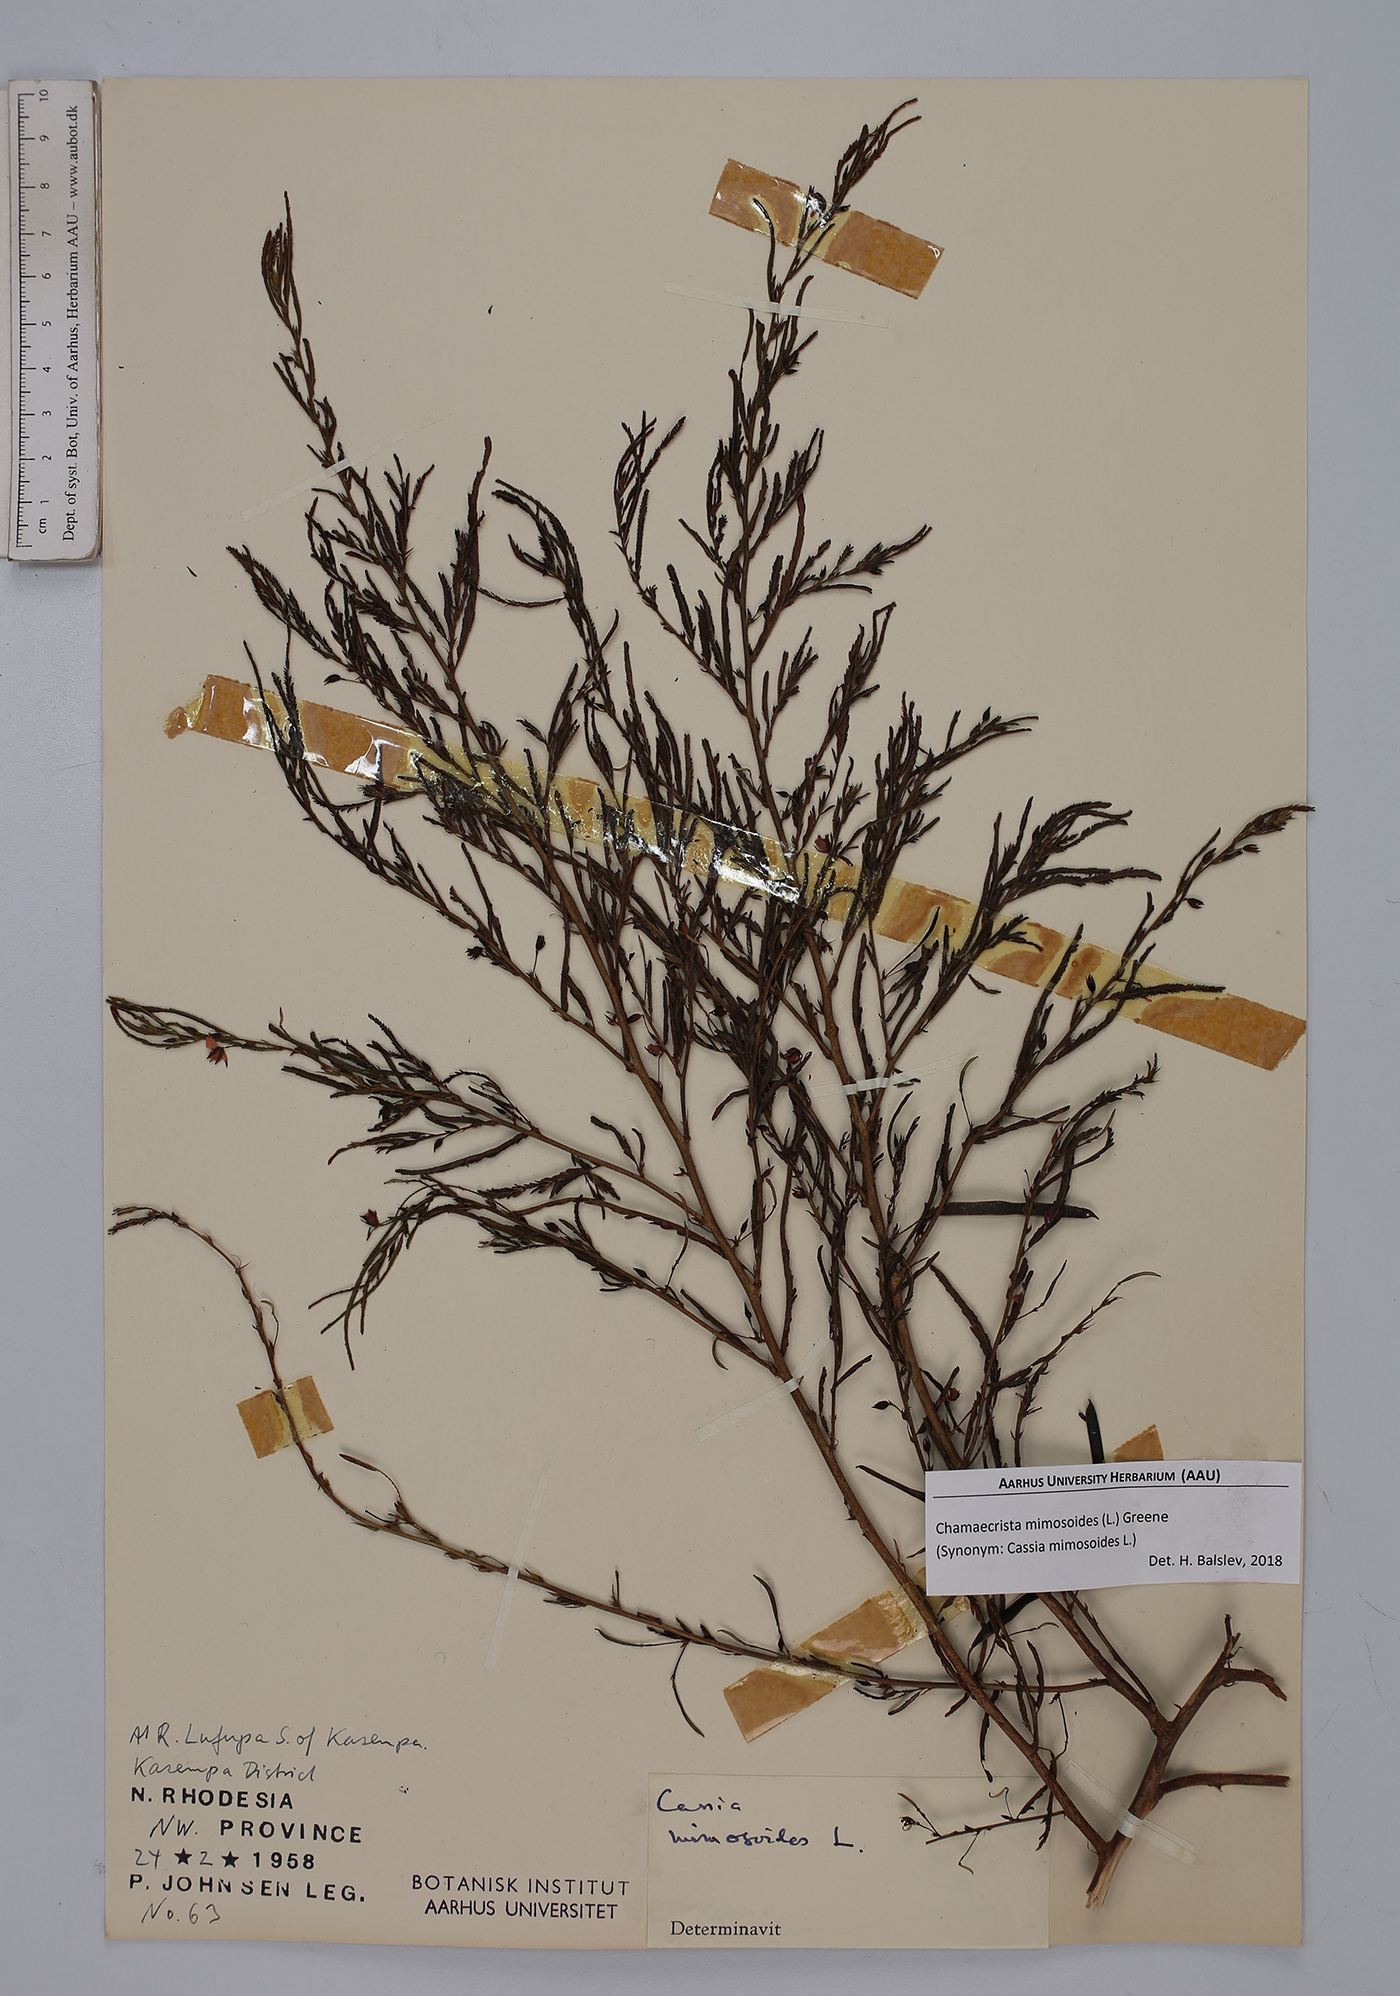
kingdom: Plantae
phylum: Tracheophyta
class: Magnoliopsida
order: Fabales
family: Fabaceae
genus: Chamaecrista
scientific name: Chamaecrista mimosoides
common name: Fish-bone cassia
